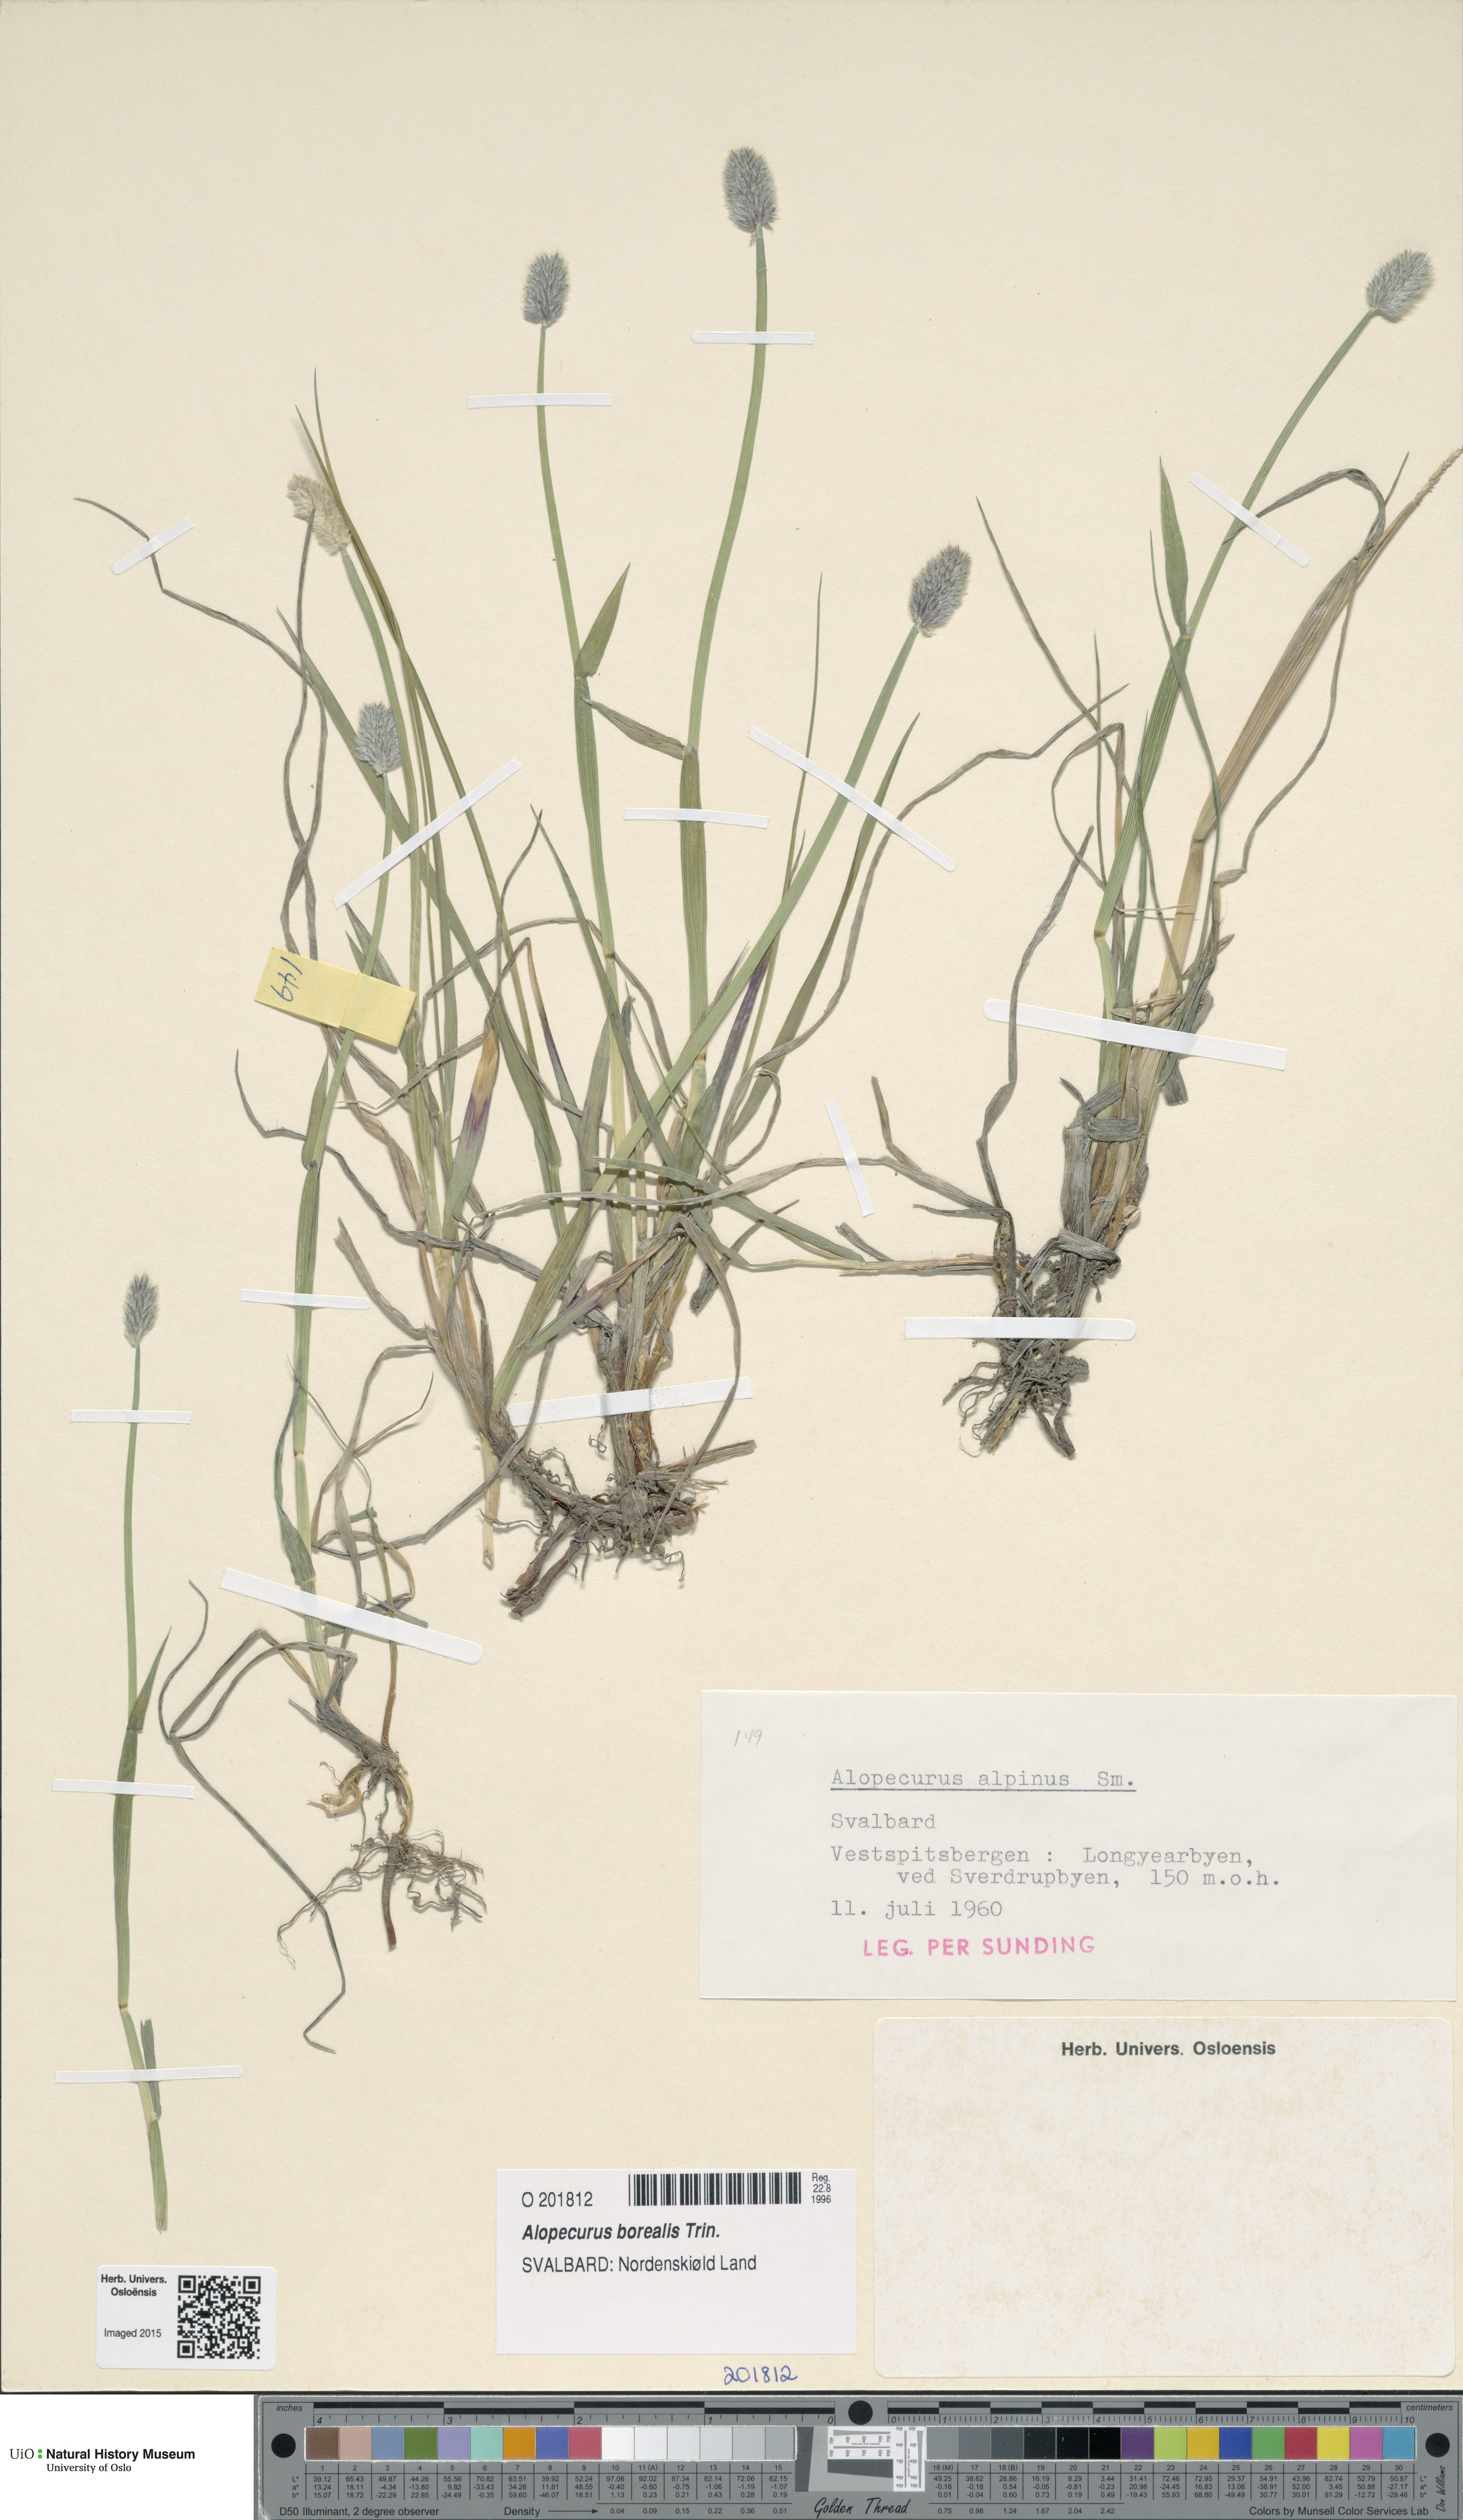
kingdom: Plantae
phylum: Tracheophyta
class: Liliopsida
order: Poales
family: Poaceae
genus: Alopecurus
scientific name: Alopecurus magellanicus
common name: Alpine foxtail
